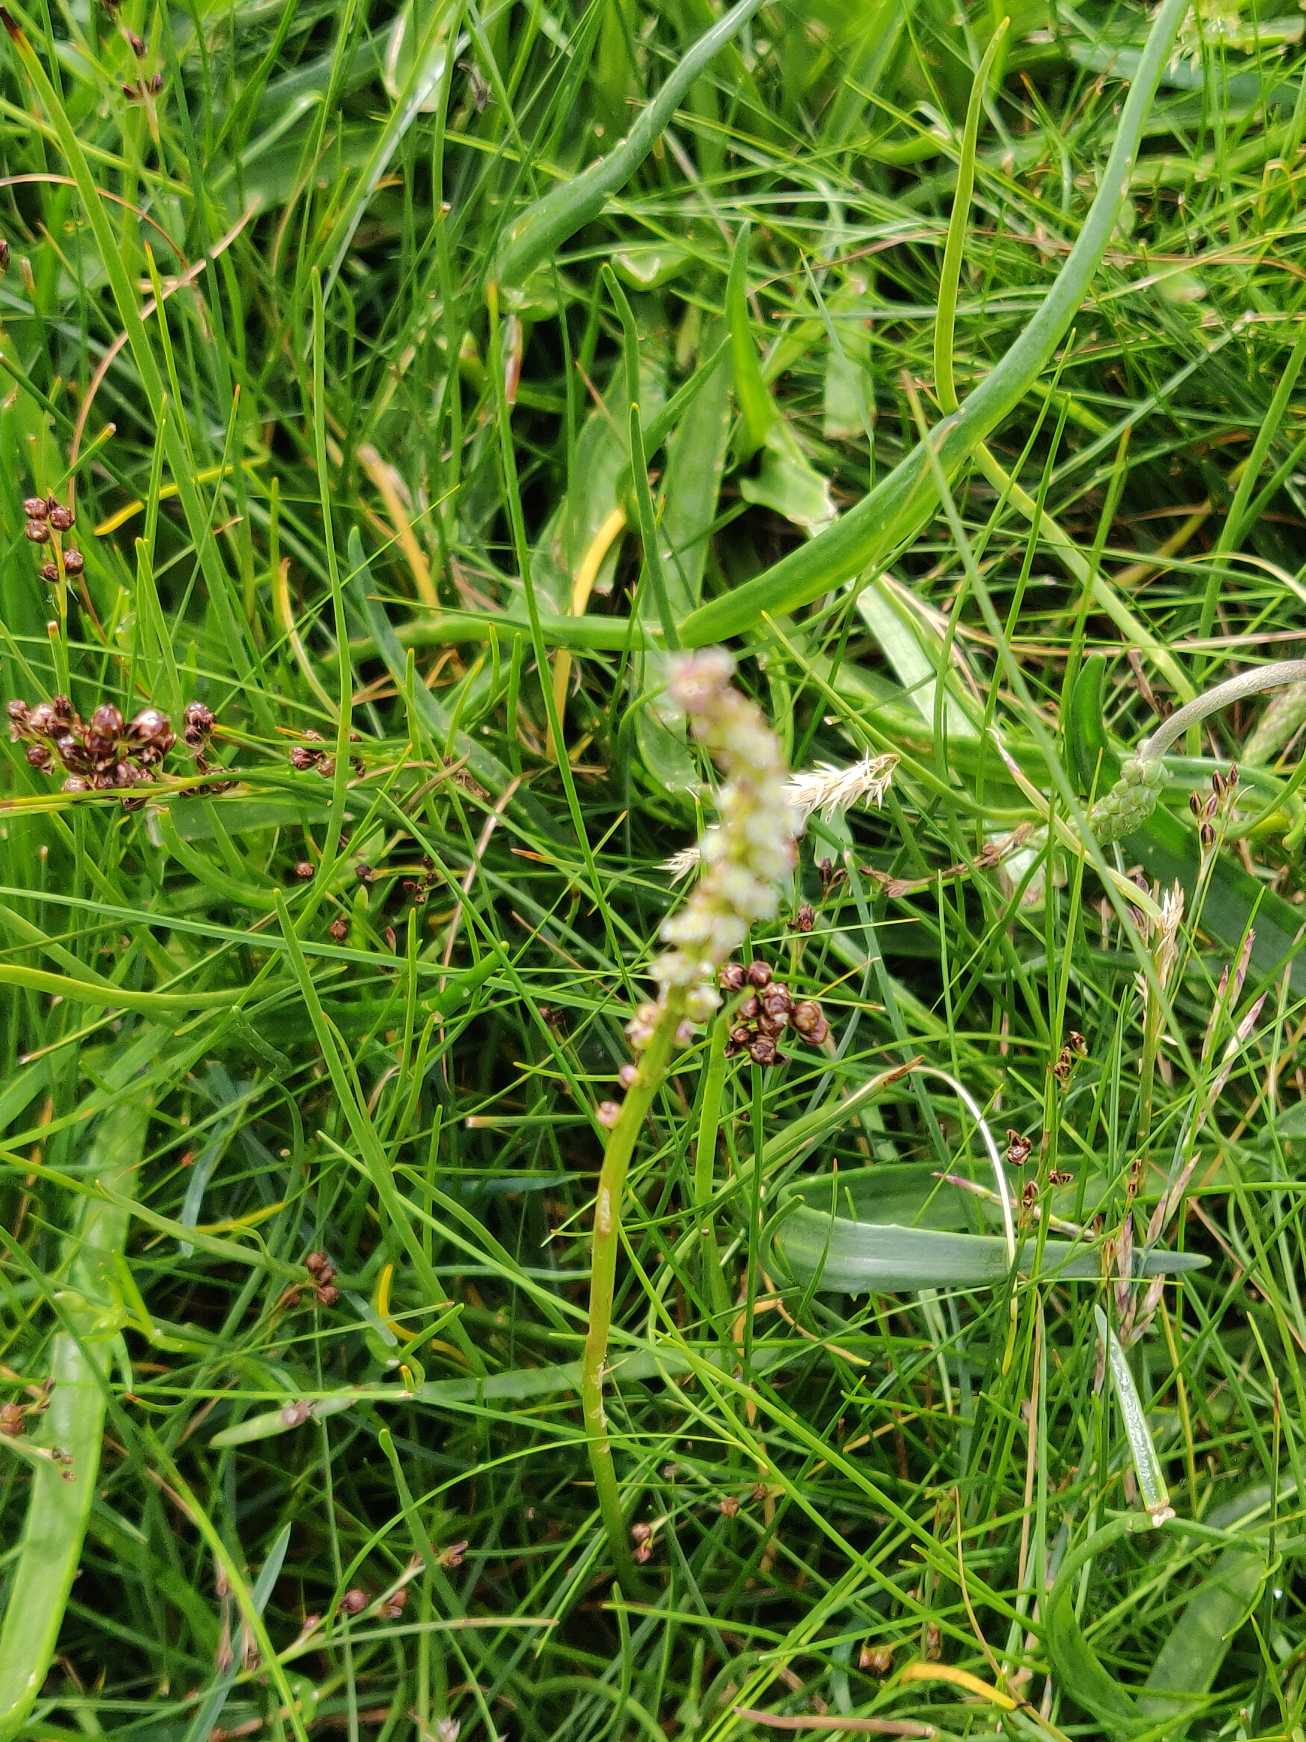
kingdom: Plantae
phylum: Tracheophyta
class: Liliopsida
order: Alismatales
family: Juncaginaceae
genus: Triglochin
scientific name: Triglochin maritima
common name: Strand-trehage
